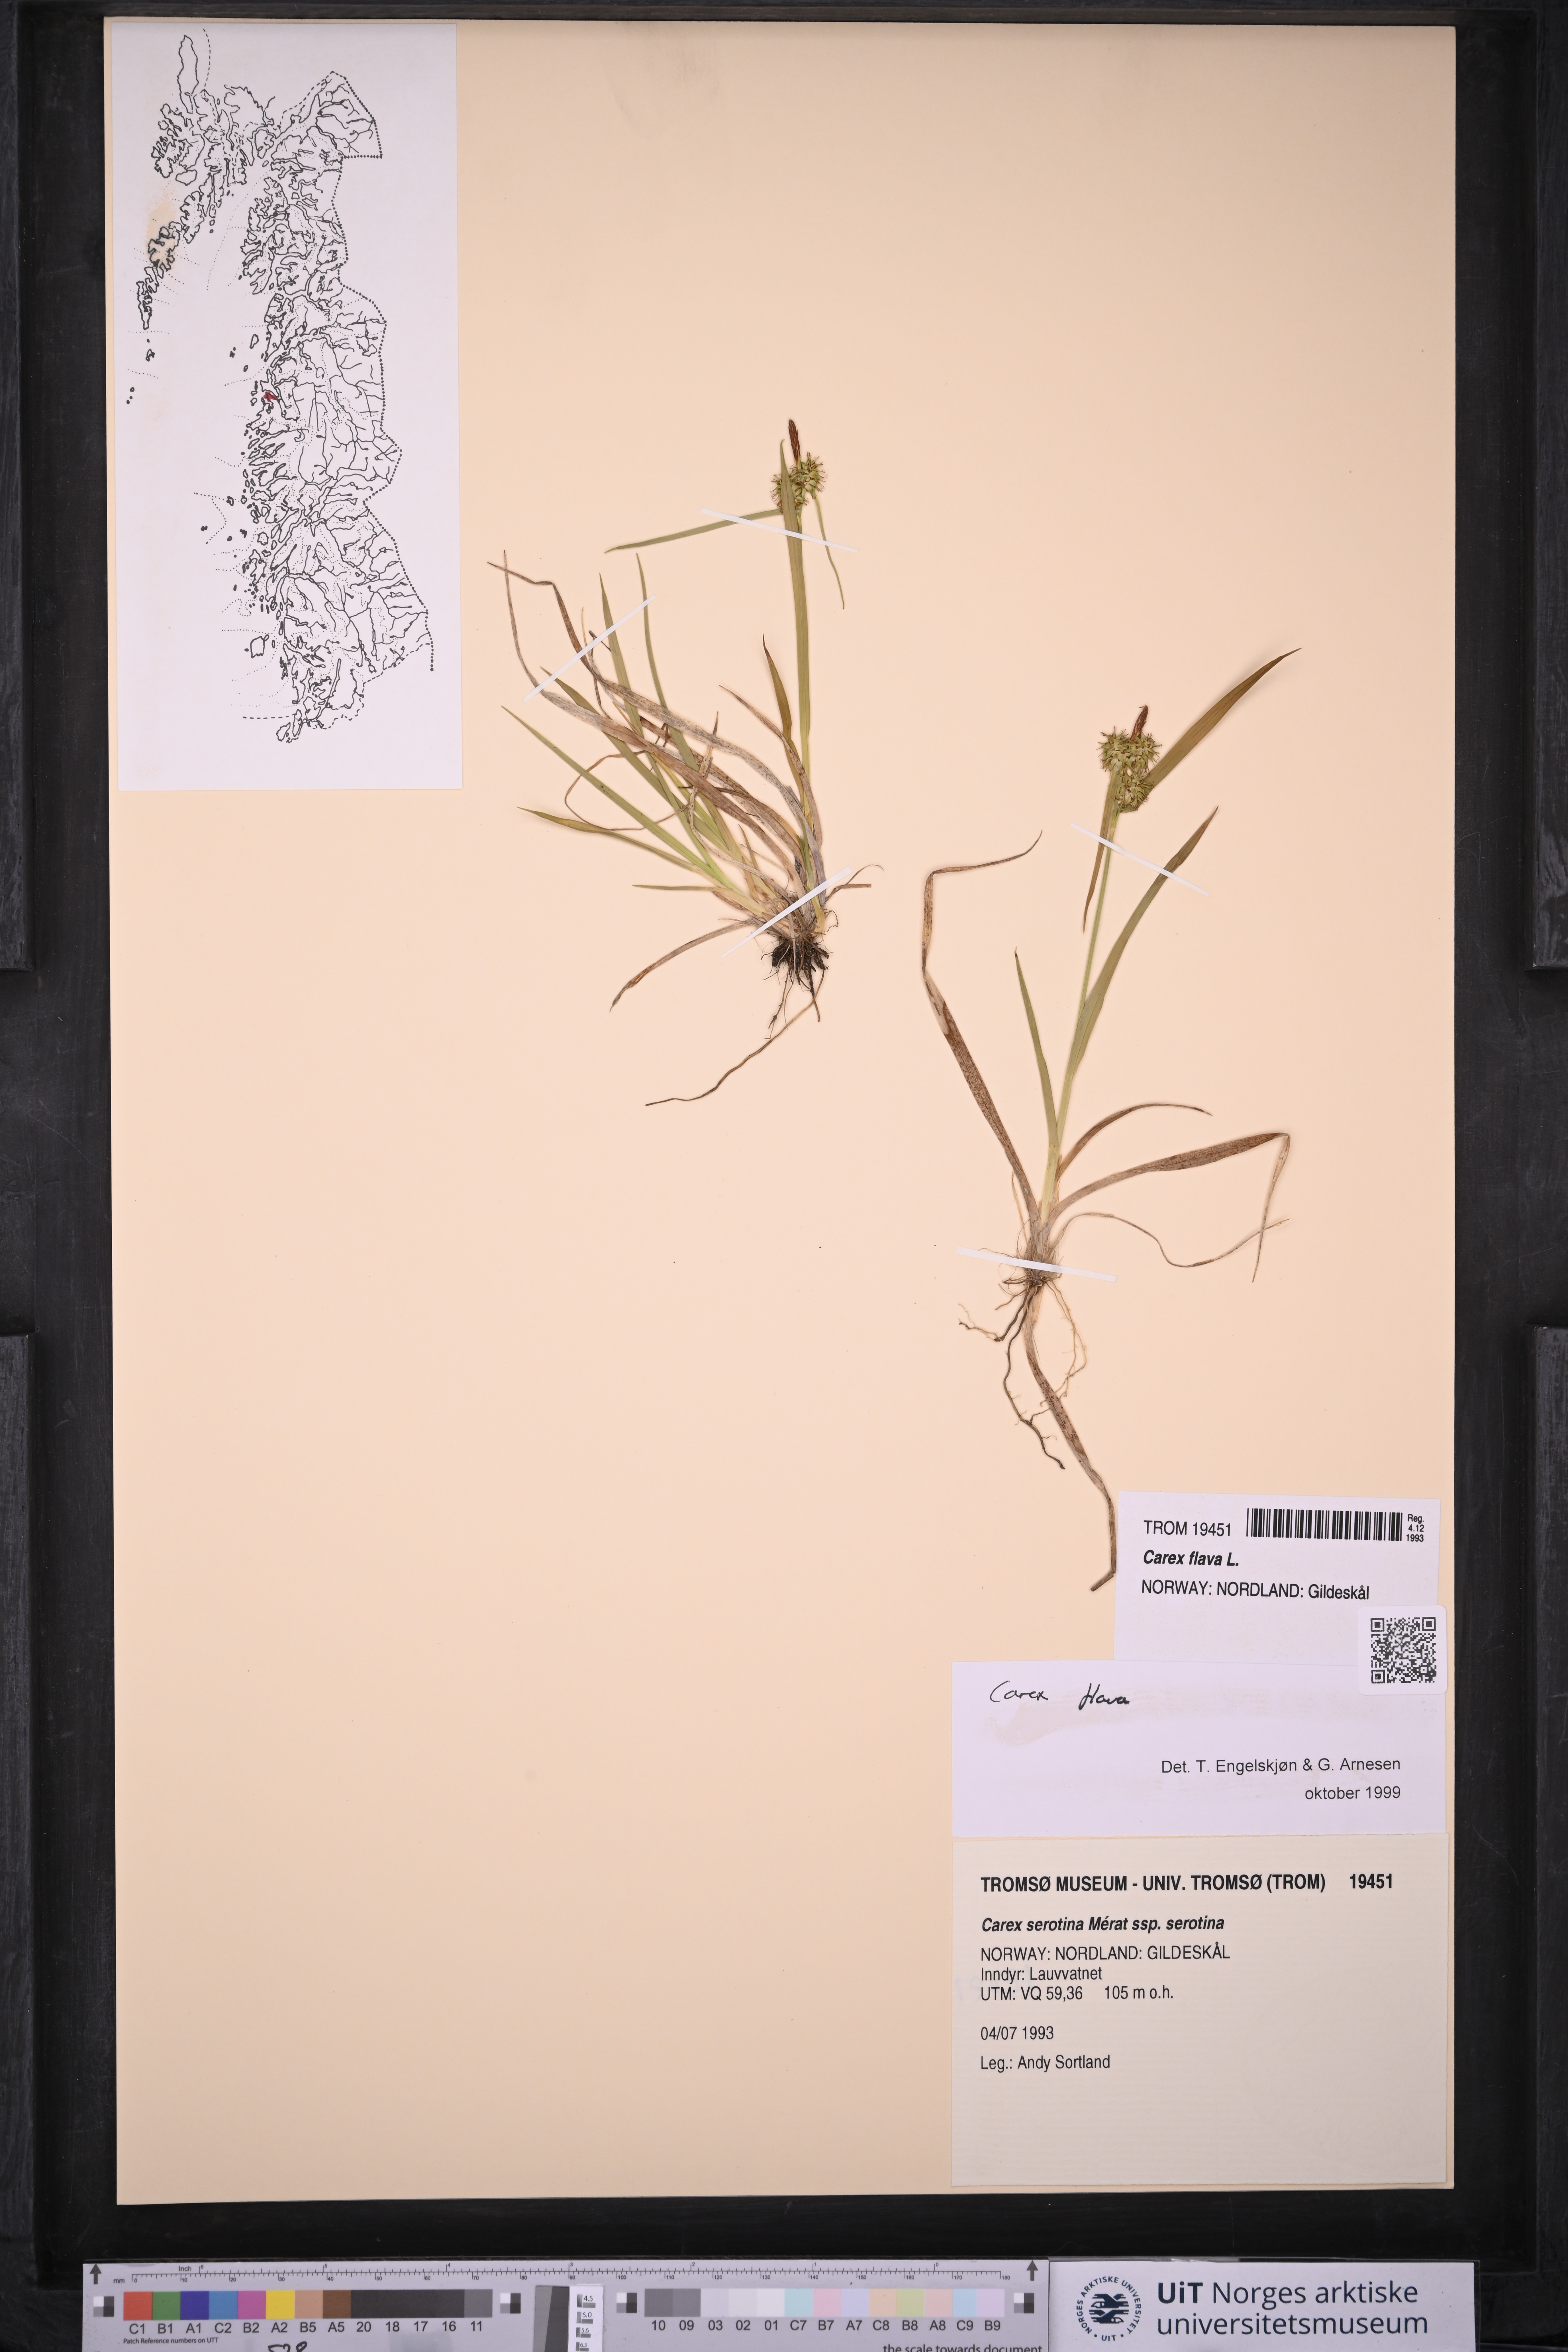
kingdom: Plantae
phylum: Tracheophyta
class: Liliopsida
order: Poales
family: Cyperaceae
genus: Carex
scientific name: Carex flava
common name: Large yellow-sedge
